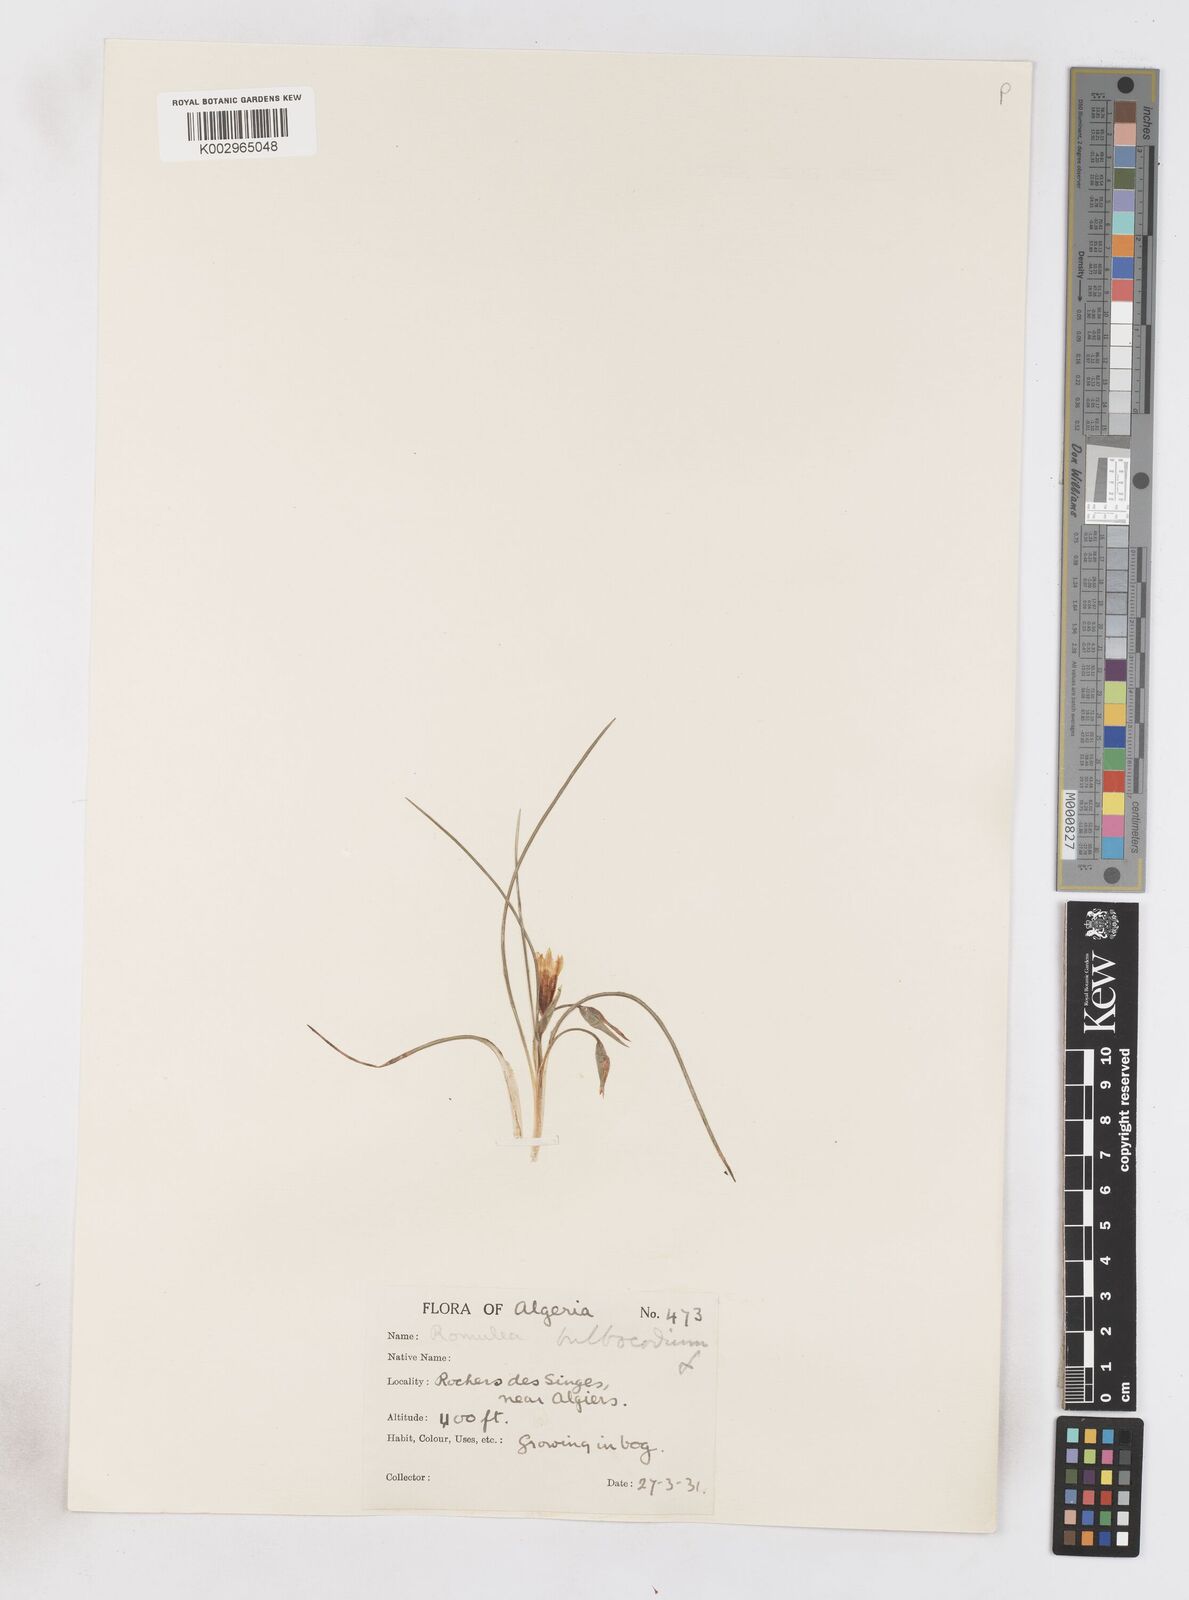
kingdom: Plantae
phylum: Tracheophyta
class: Liliopsida
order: Asparagales
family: Iridaceae
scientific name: Iridaceae
